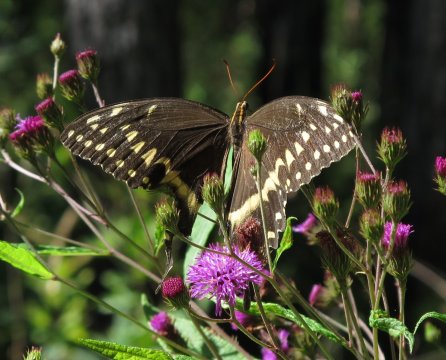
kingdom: Animalia
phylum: Arthropoda
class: Insecta
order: Lepidoptera
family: Papilionidae
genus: Pterourus
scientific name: Pterourus palamedes
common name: Palamedes Swallowtail
